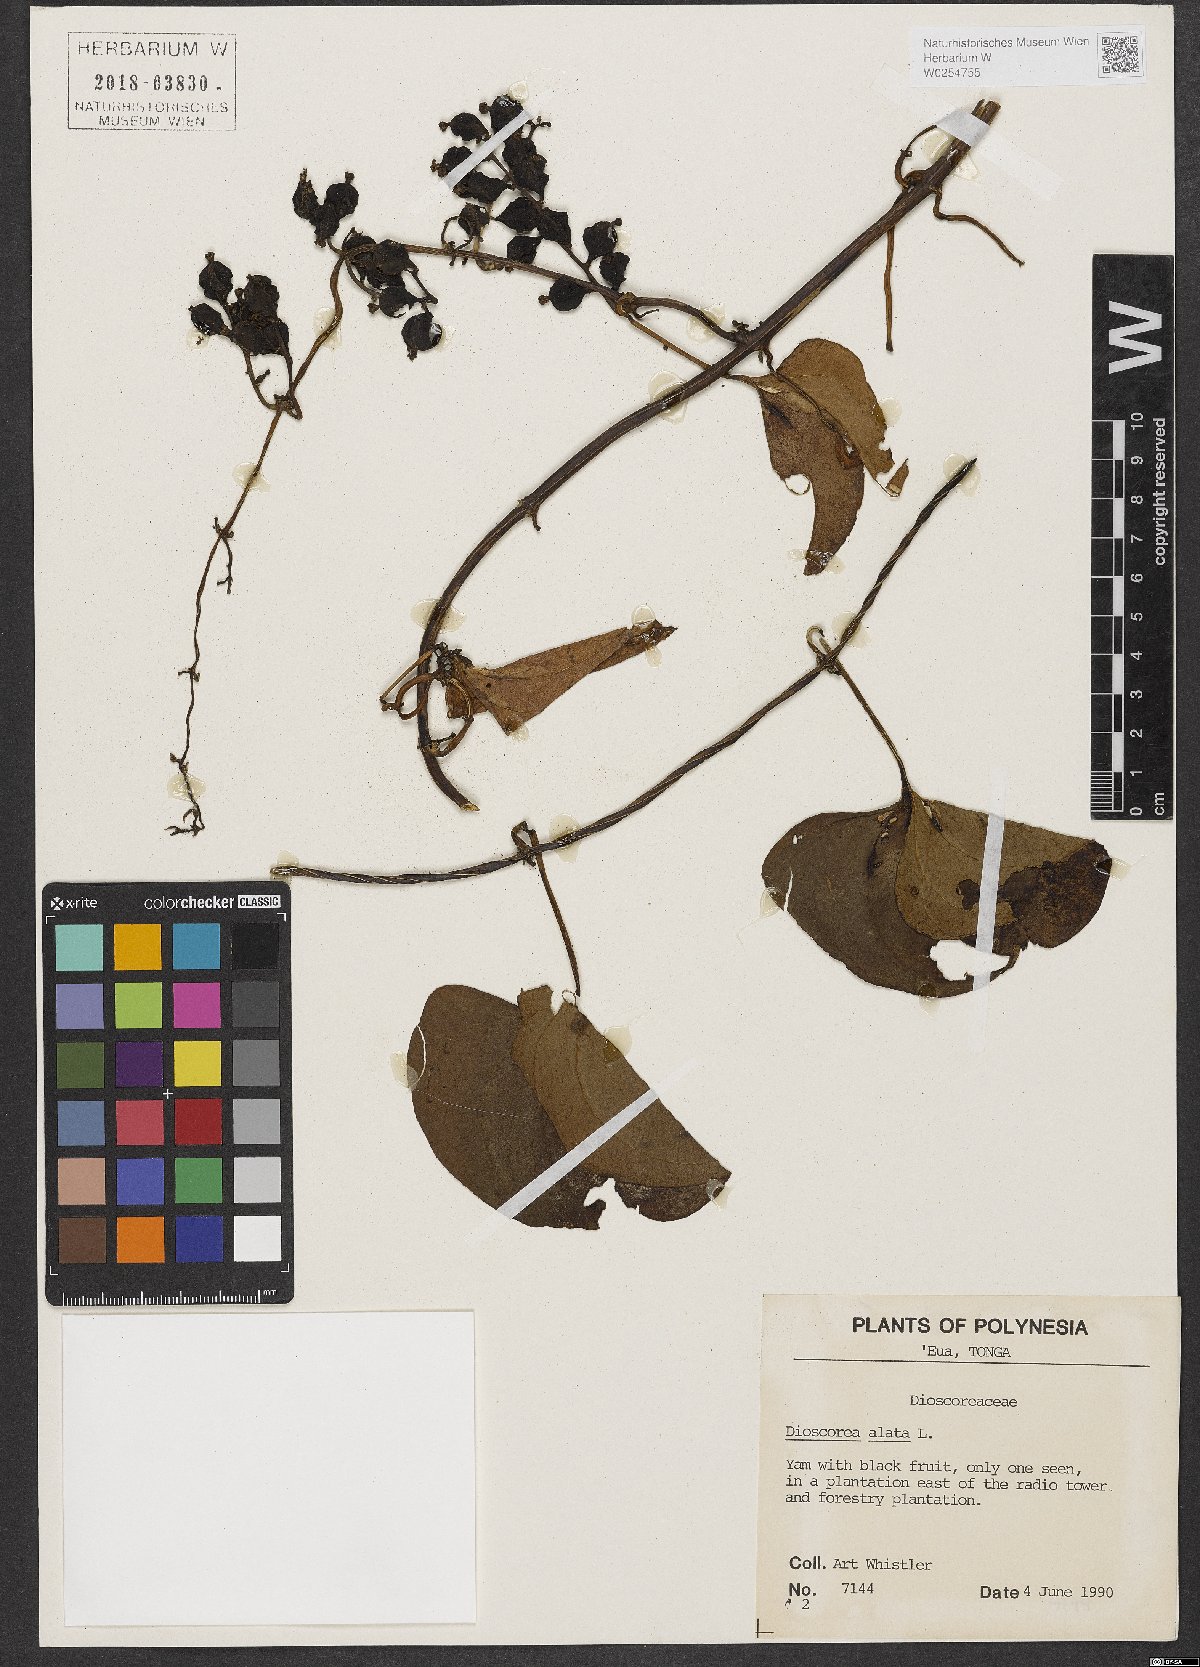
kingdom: Plantae
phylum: Tracheophyta
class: Liliopsida
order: Dioscoreales
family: Dioscoreaceae
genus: Dioscorea
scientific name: Dioscorea alata
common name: Water yam
